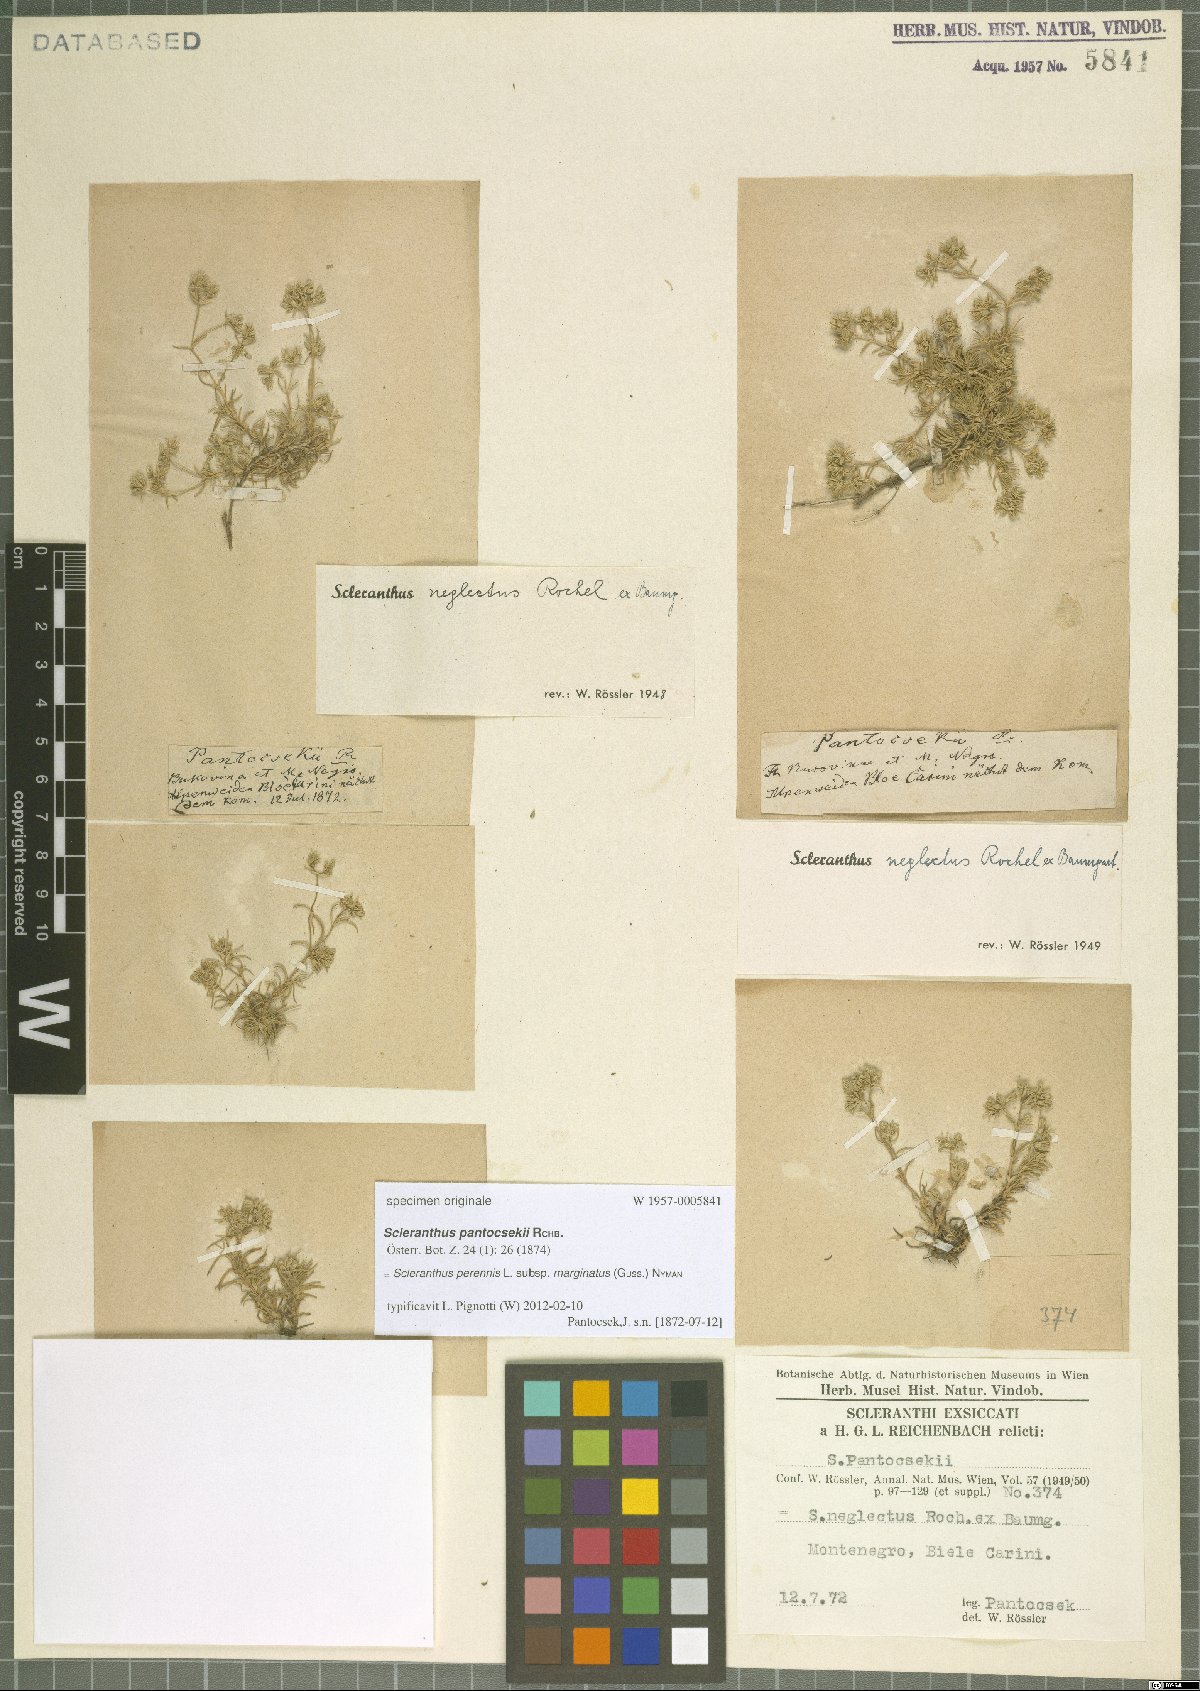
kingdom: Plantae
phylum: Tracheophyta
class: Magnoliopsida
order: Caryophyllales
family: Caryophyllaceae
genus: Scleranthus
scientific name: Scleranthus perennis
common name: Perennial knawel
